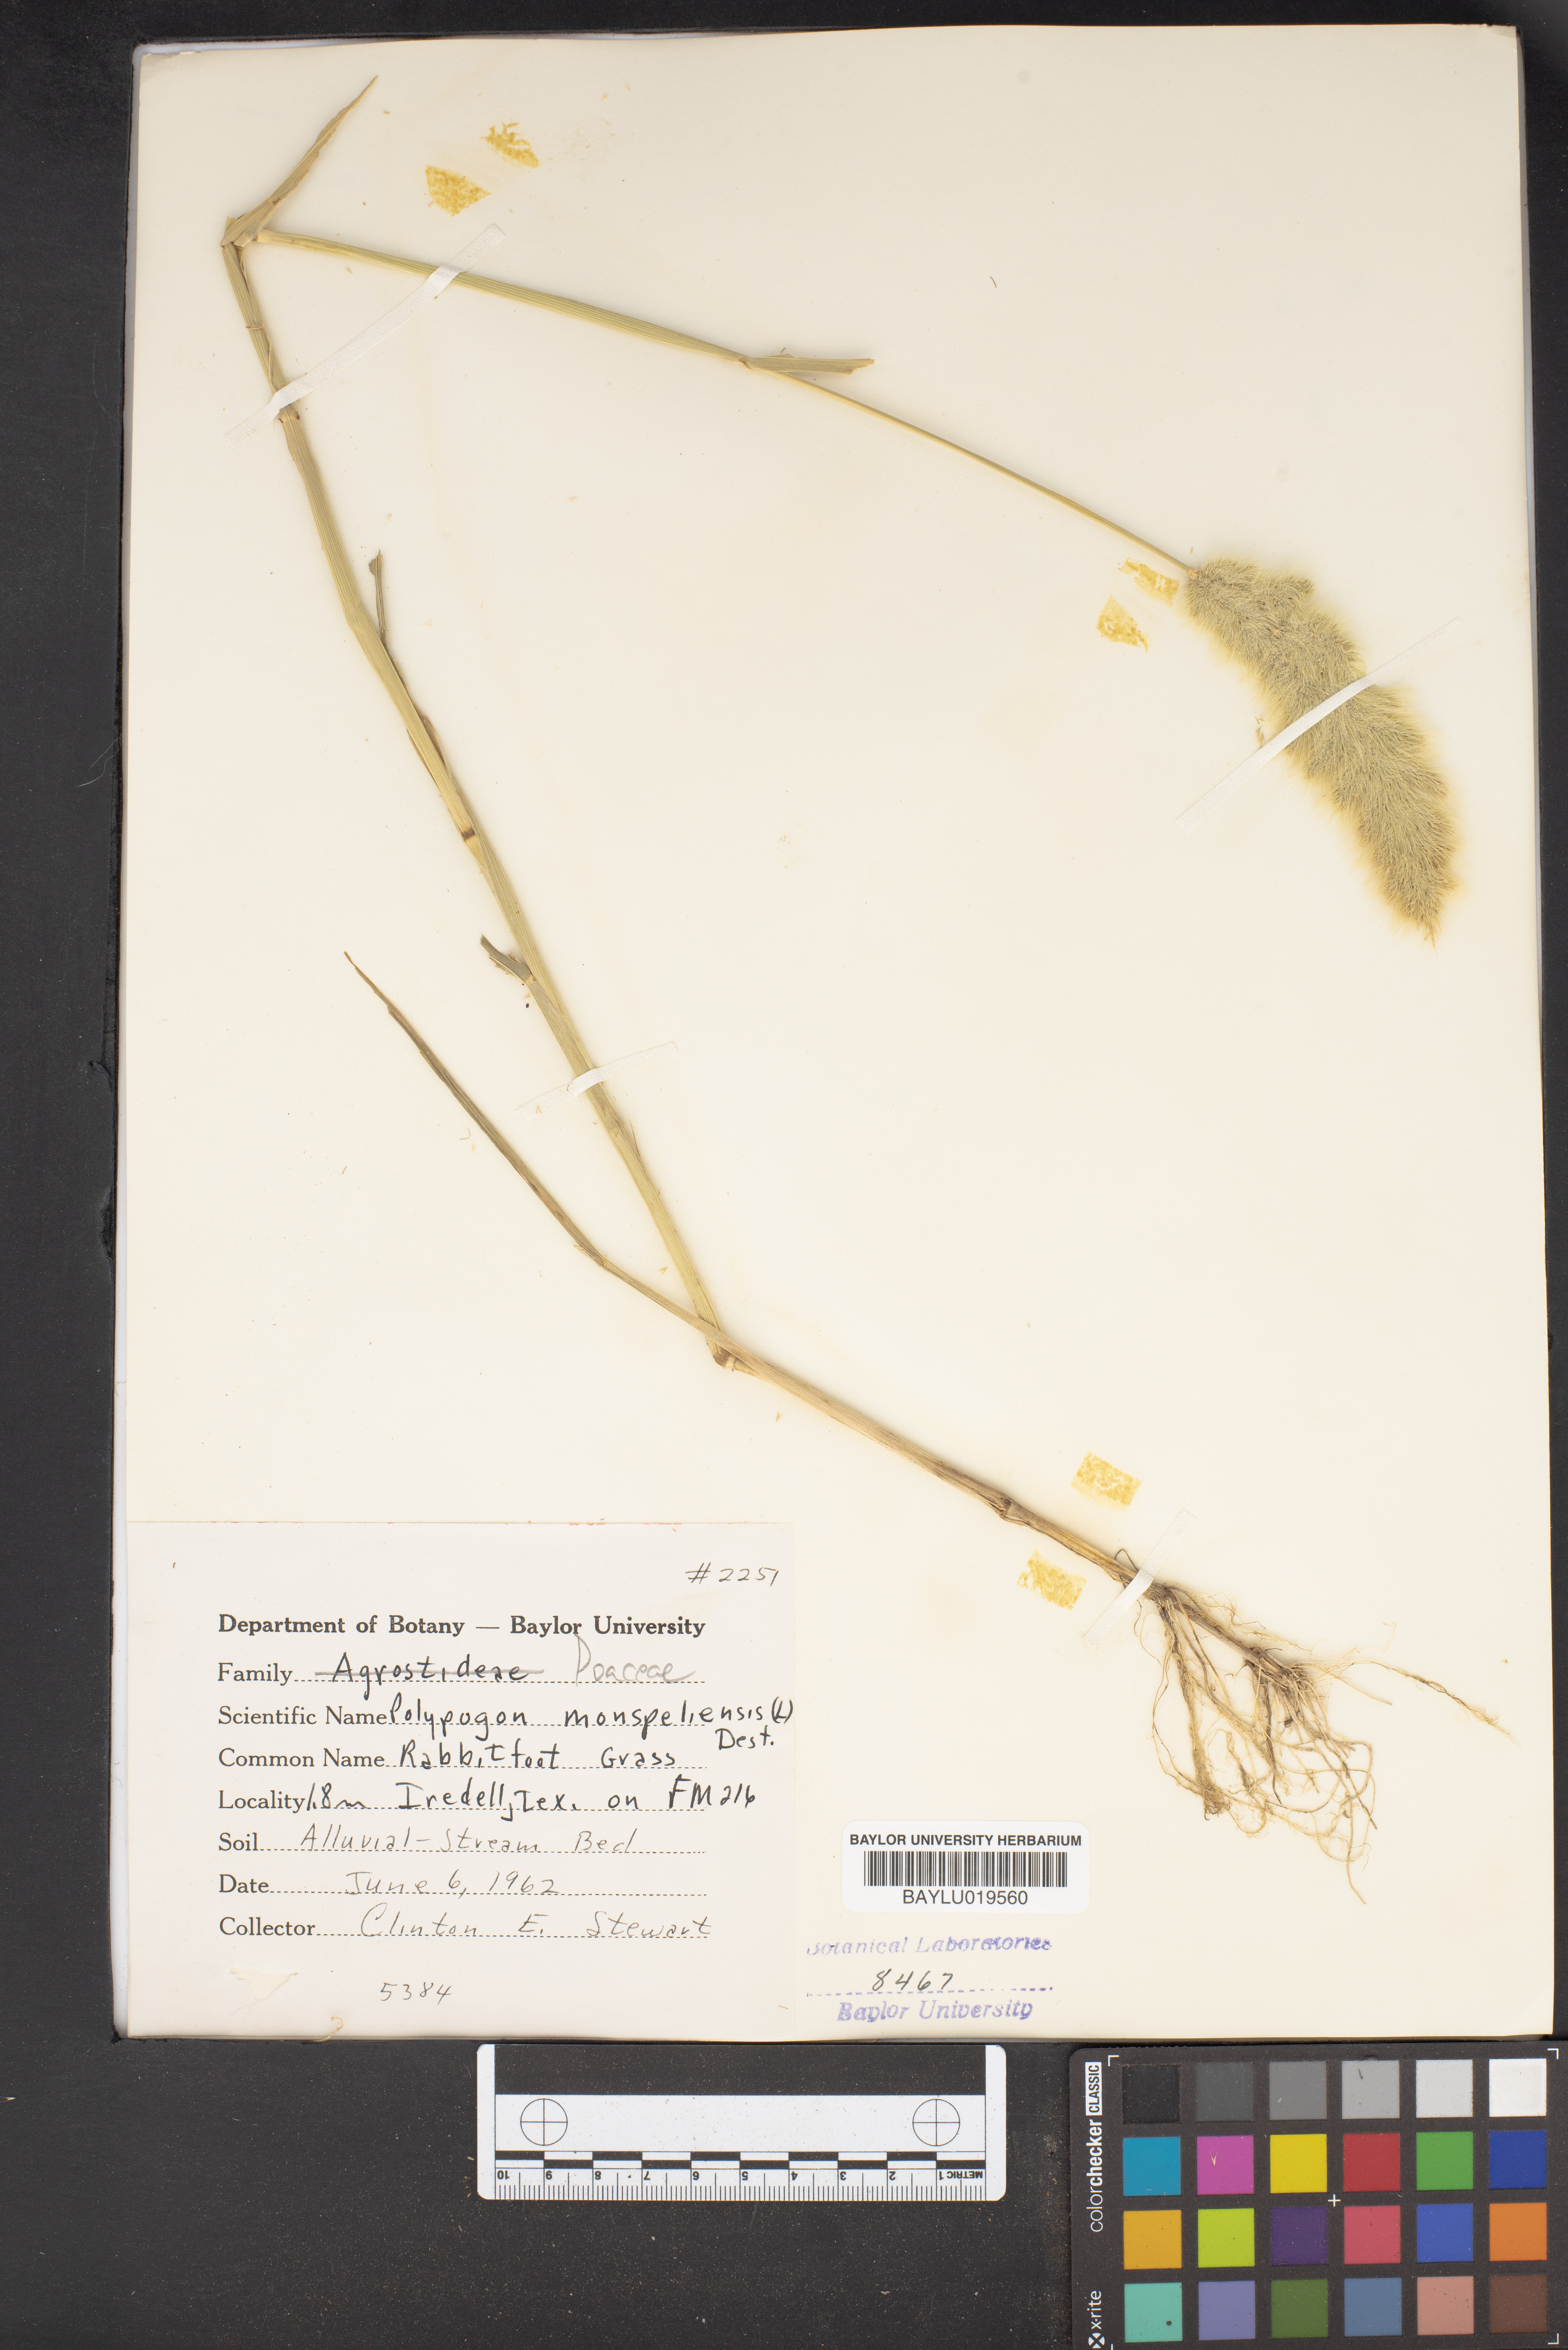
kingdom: Plantae
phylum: Tracheophyta
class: Liliopsida
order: Poales
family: Poaceae
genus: Polypogon
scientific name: Polypogon monspeliensis
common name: Annual rabbitsfoot grass
